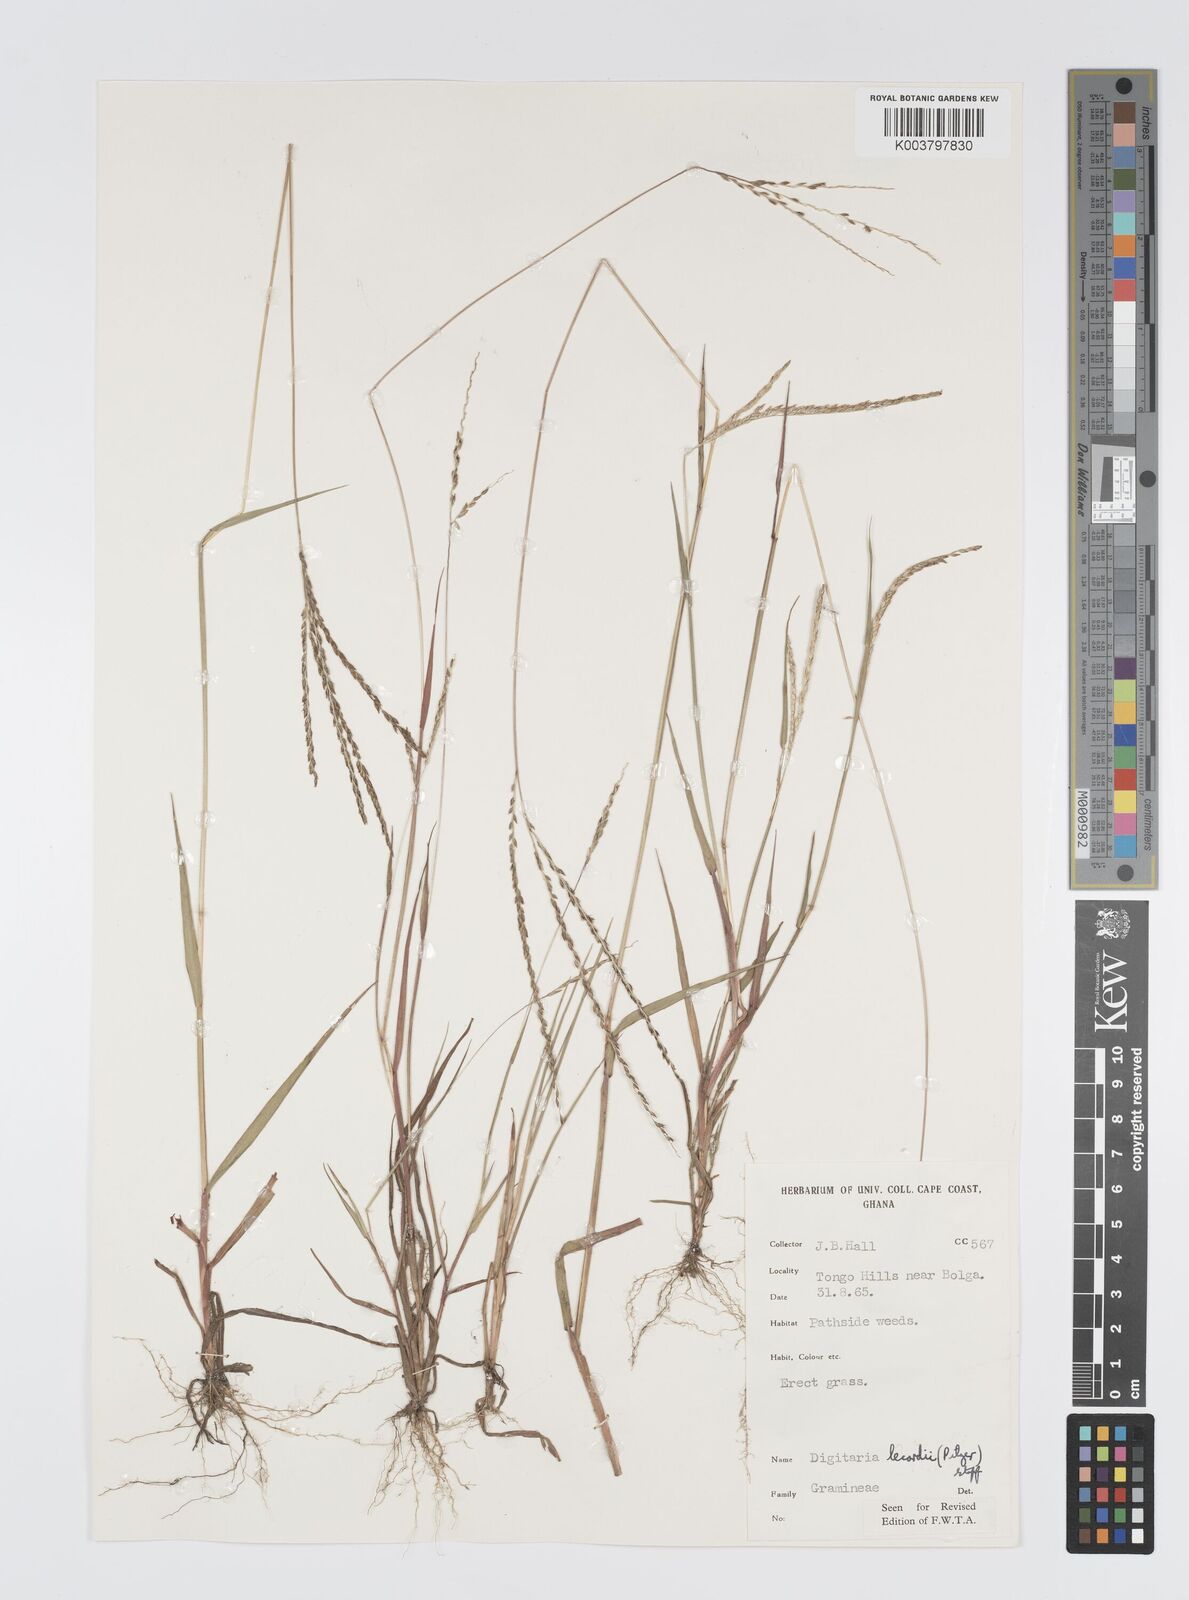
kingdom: Plantae
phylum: Tracheophyta
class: Liliopsida
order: Poales
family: Poaceae
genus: Digitaria
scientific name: Digitaria
